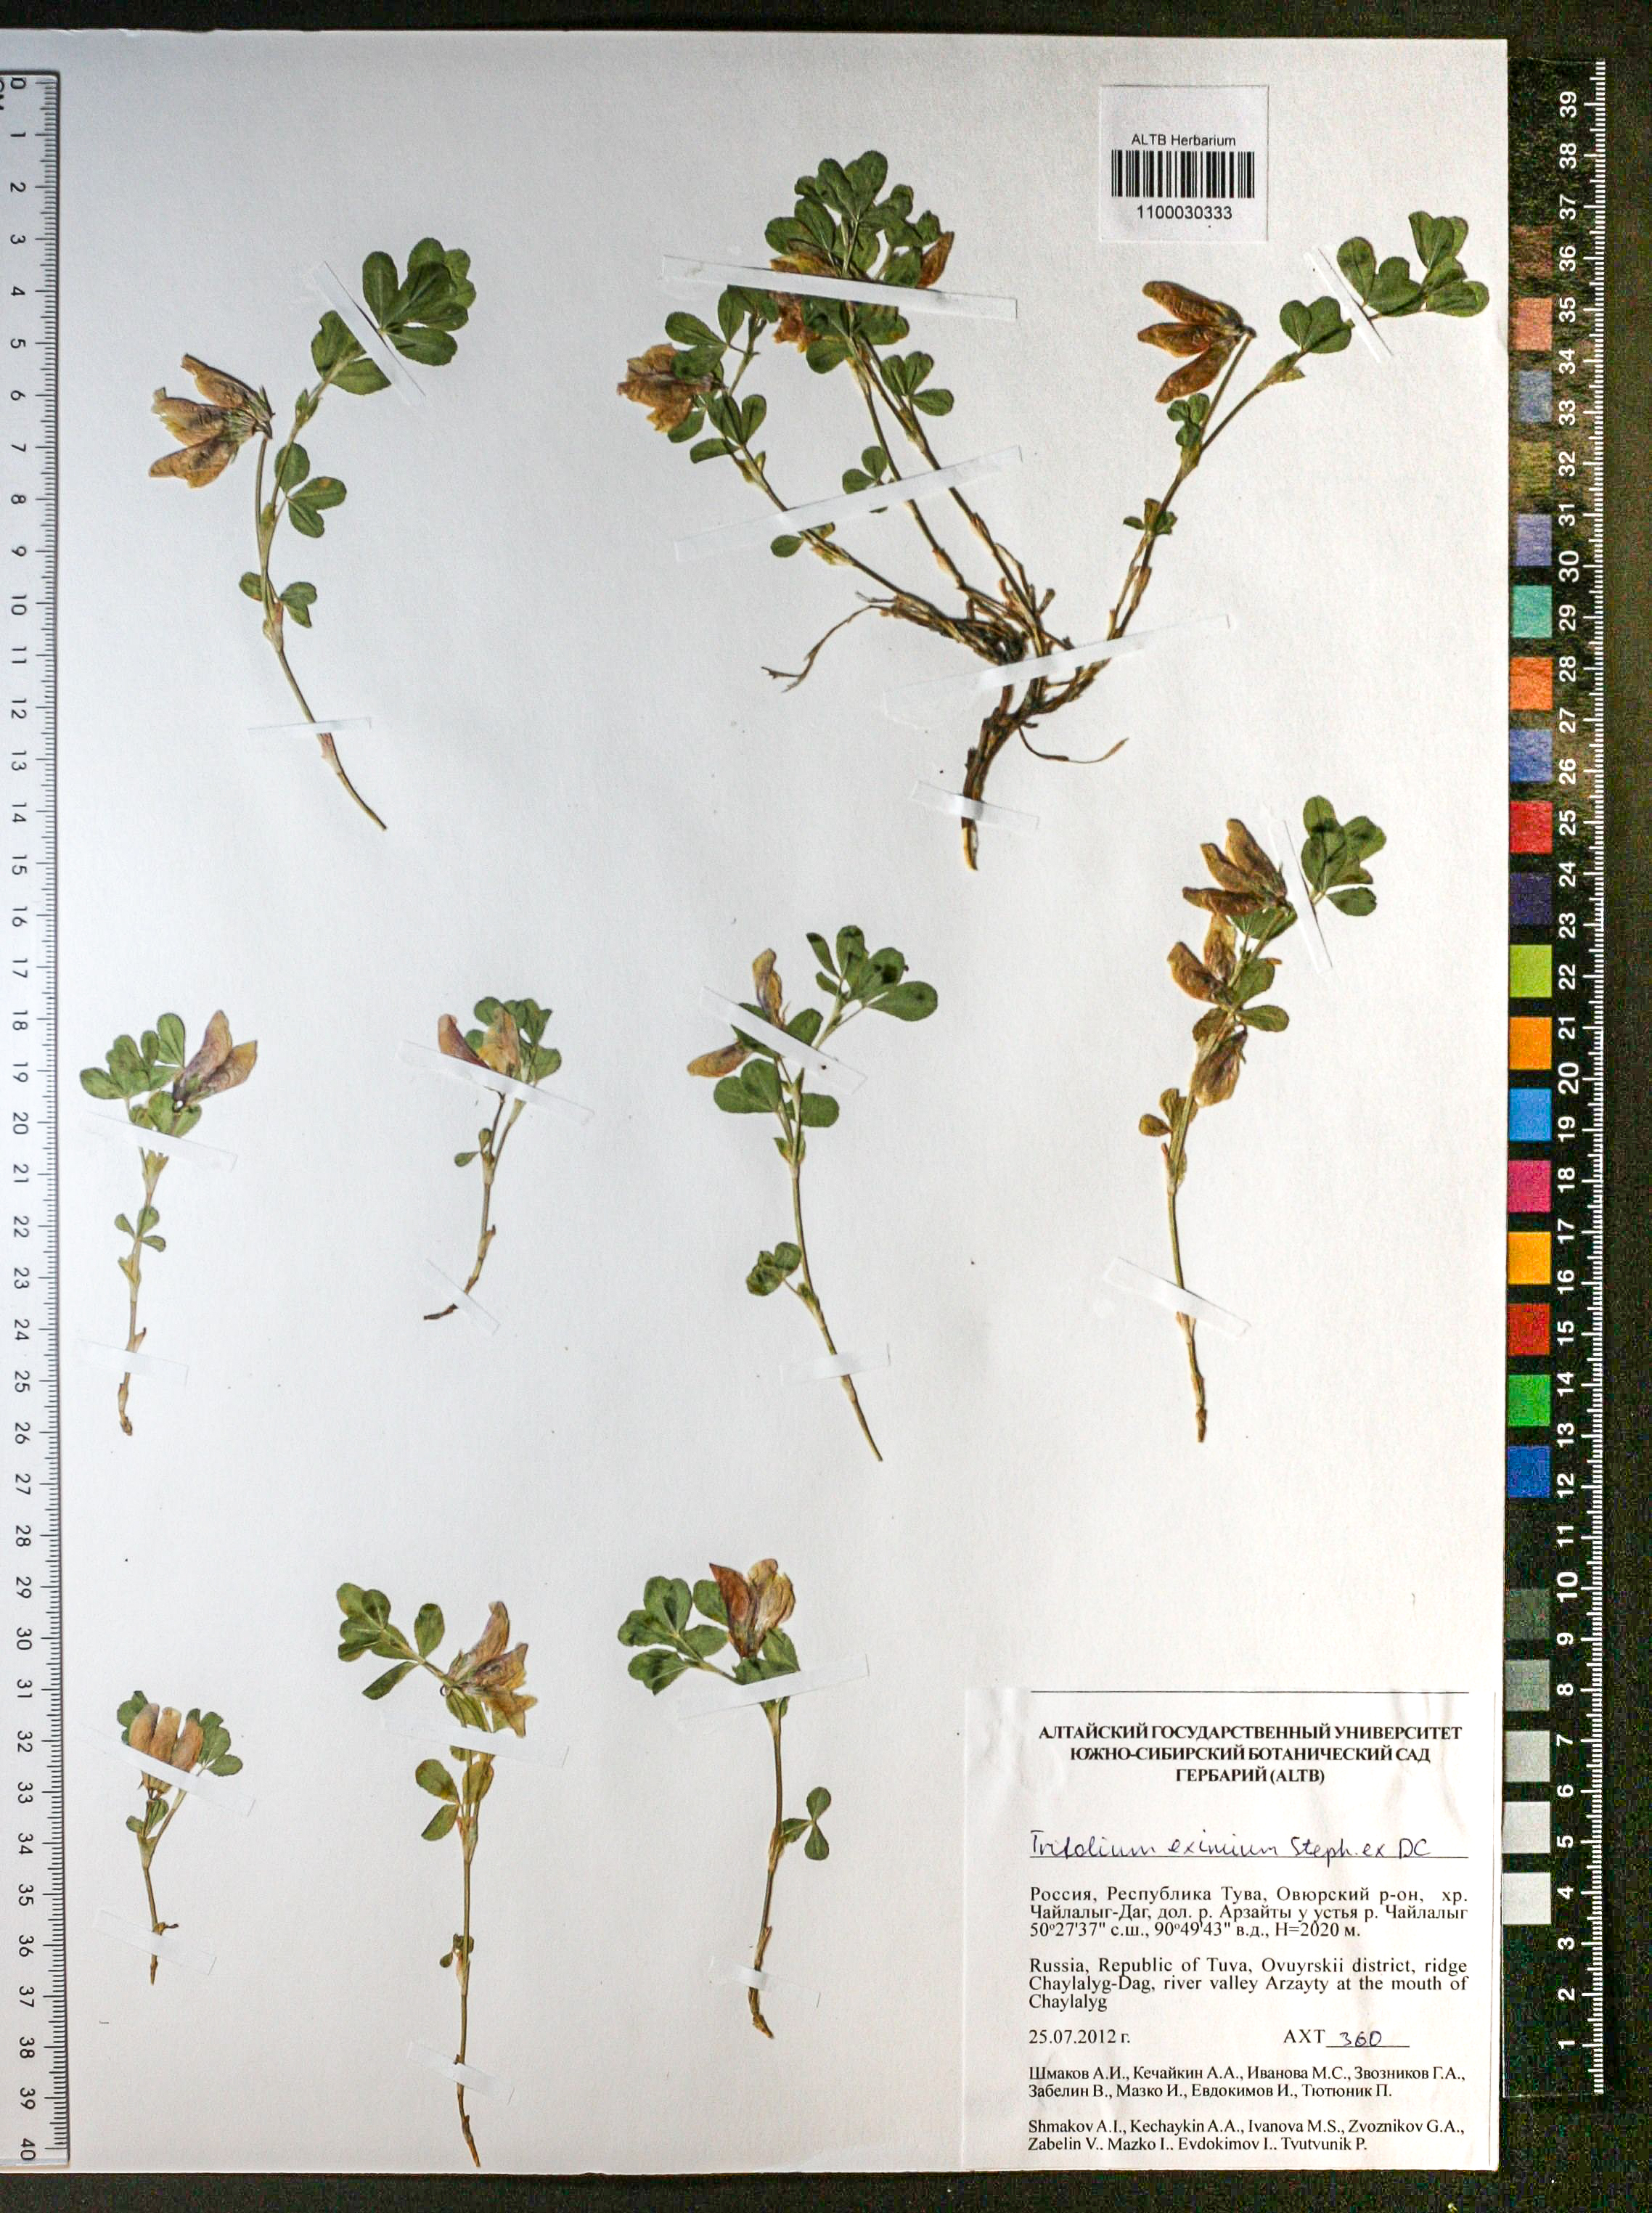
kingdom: Plantae
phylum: Tracheophyta
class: Magnoliopsida
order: Fabales
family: Fabaceae
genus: Trifolium
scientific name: Trifolium eximium
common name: Excellent clover
